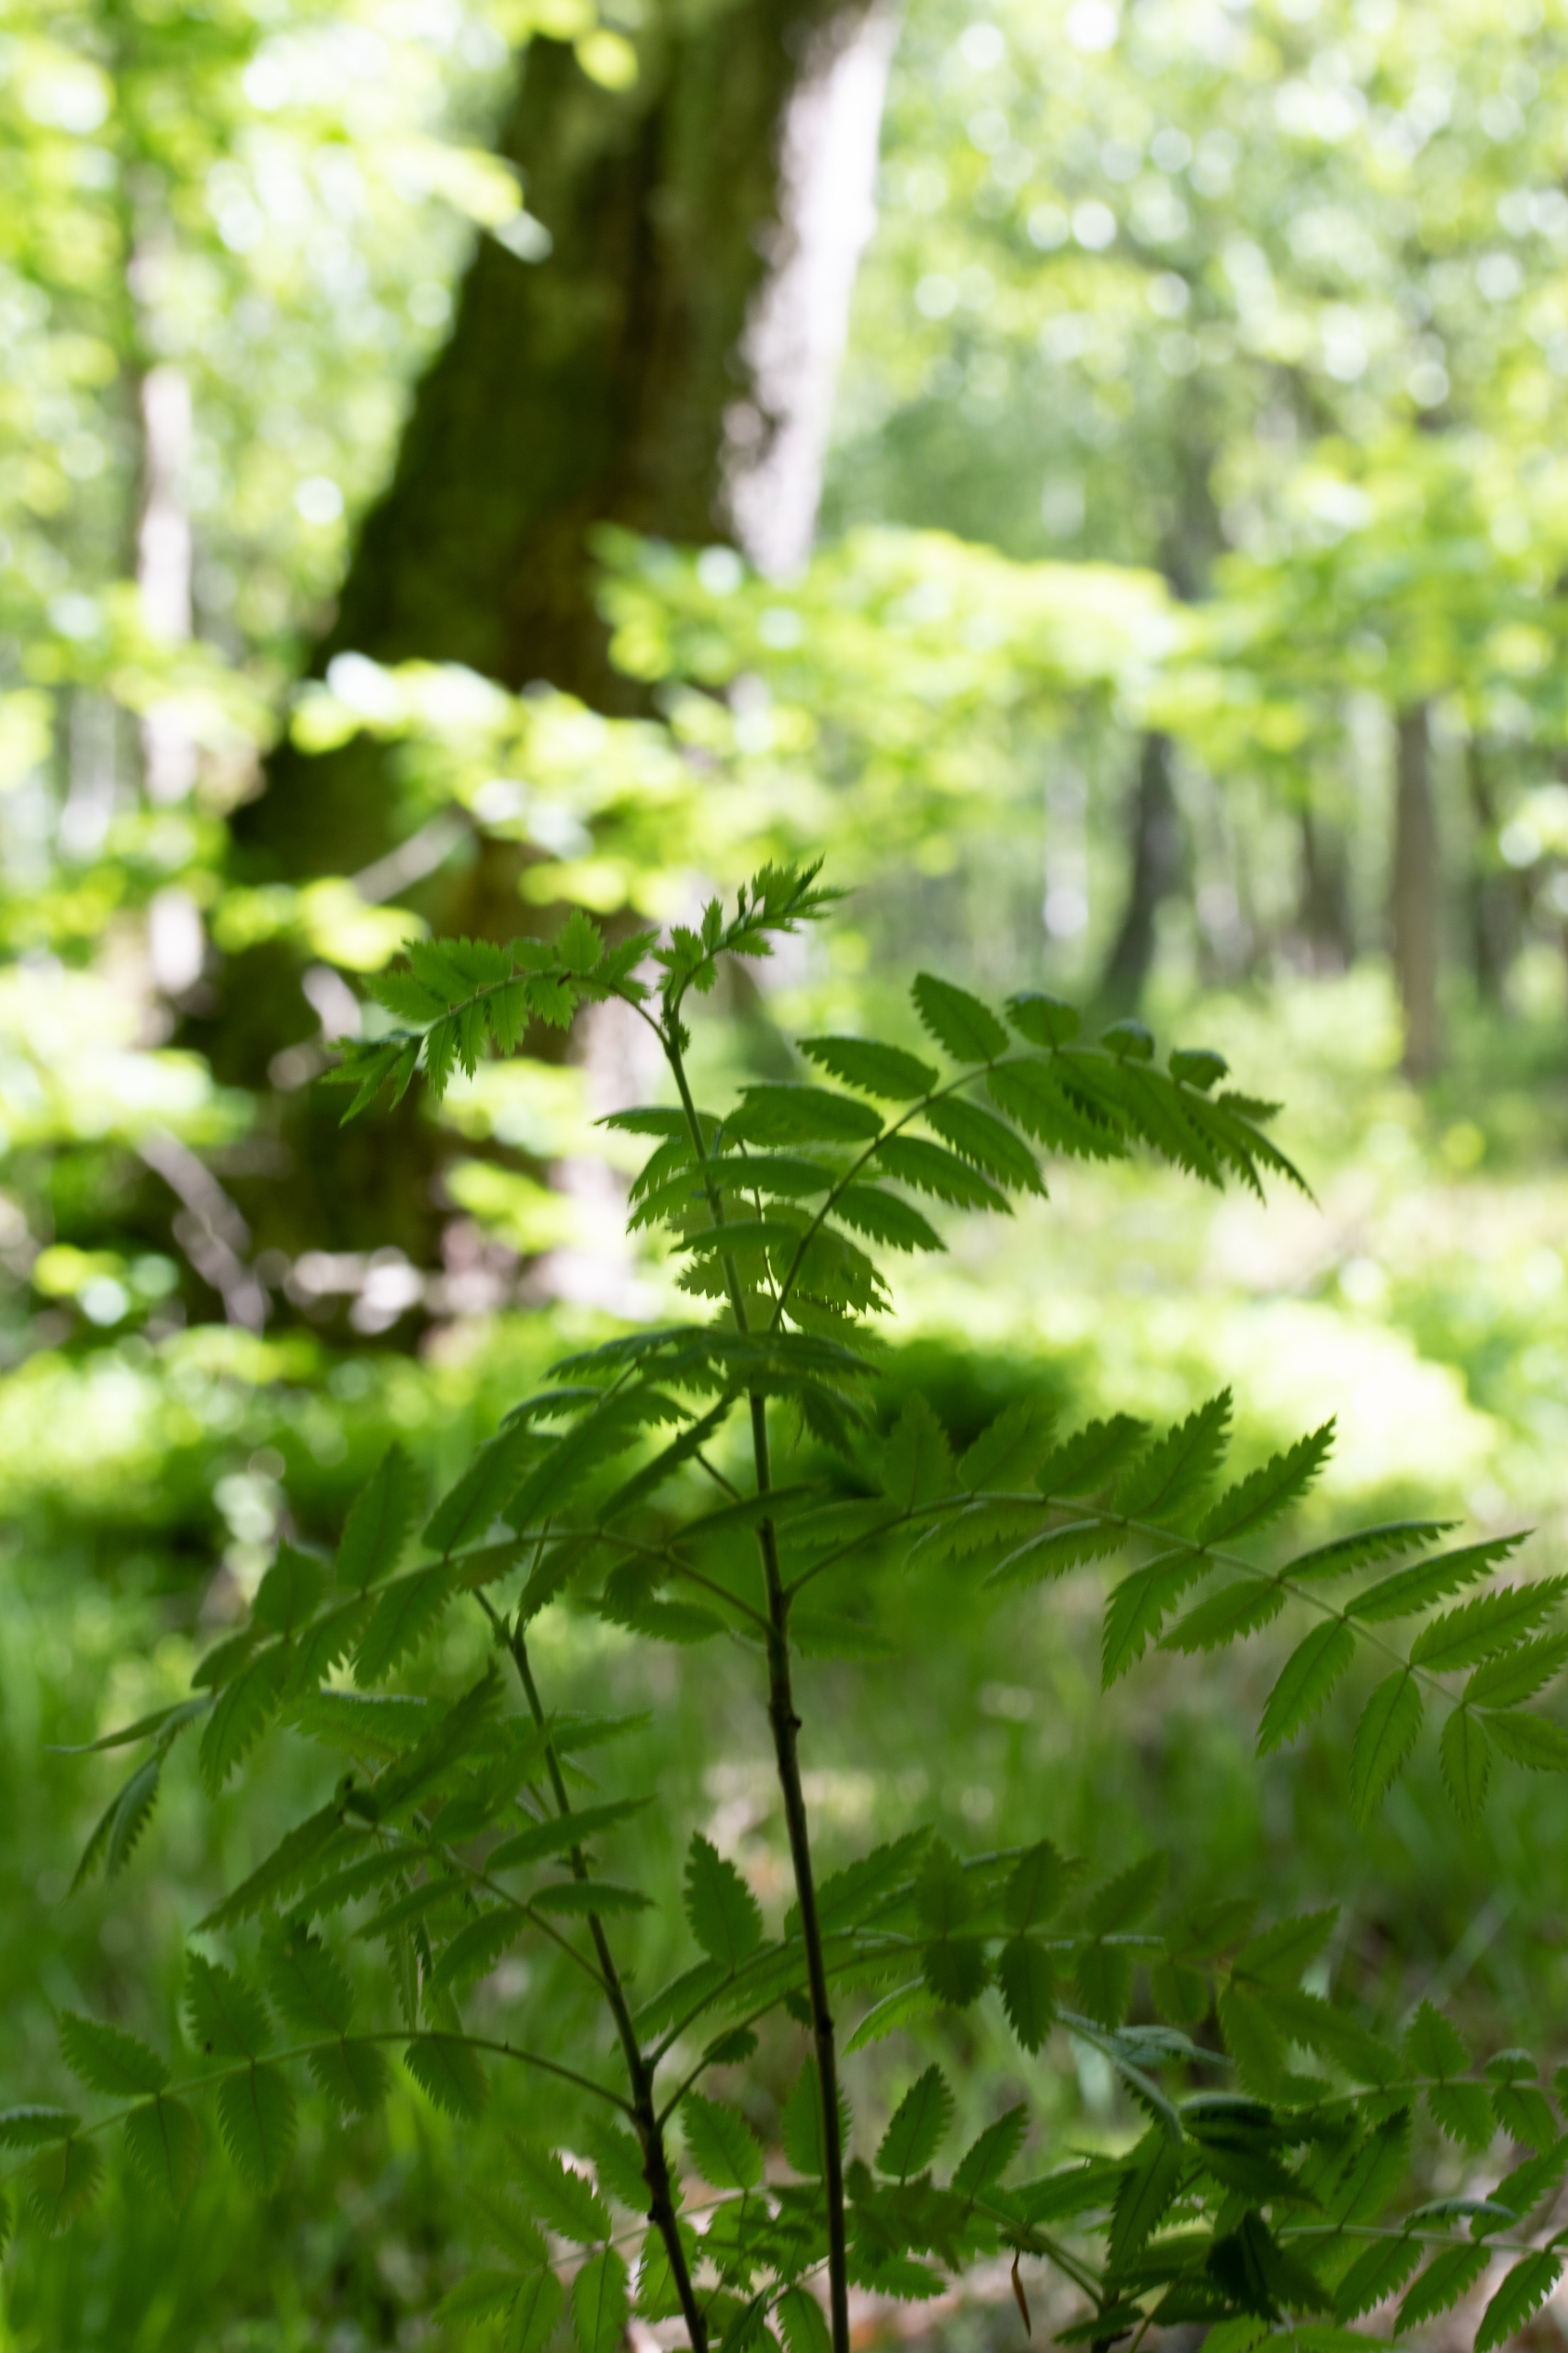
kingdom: Plantae
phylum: Tracheophyta
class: Magnoliopsida
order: Rosales
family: Rosaceae
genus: Sorbus
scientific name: Sorbus aucuparia
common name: Almindelig røn
